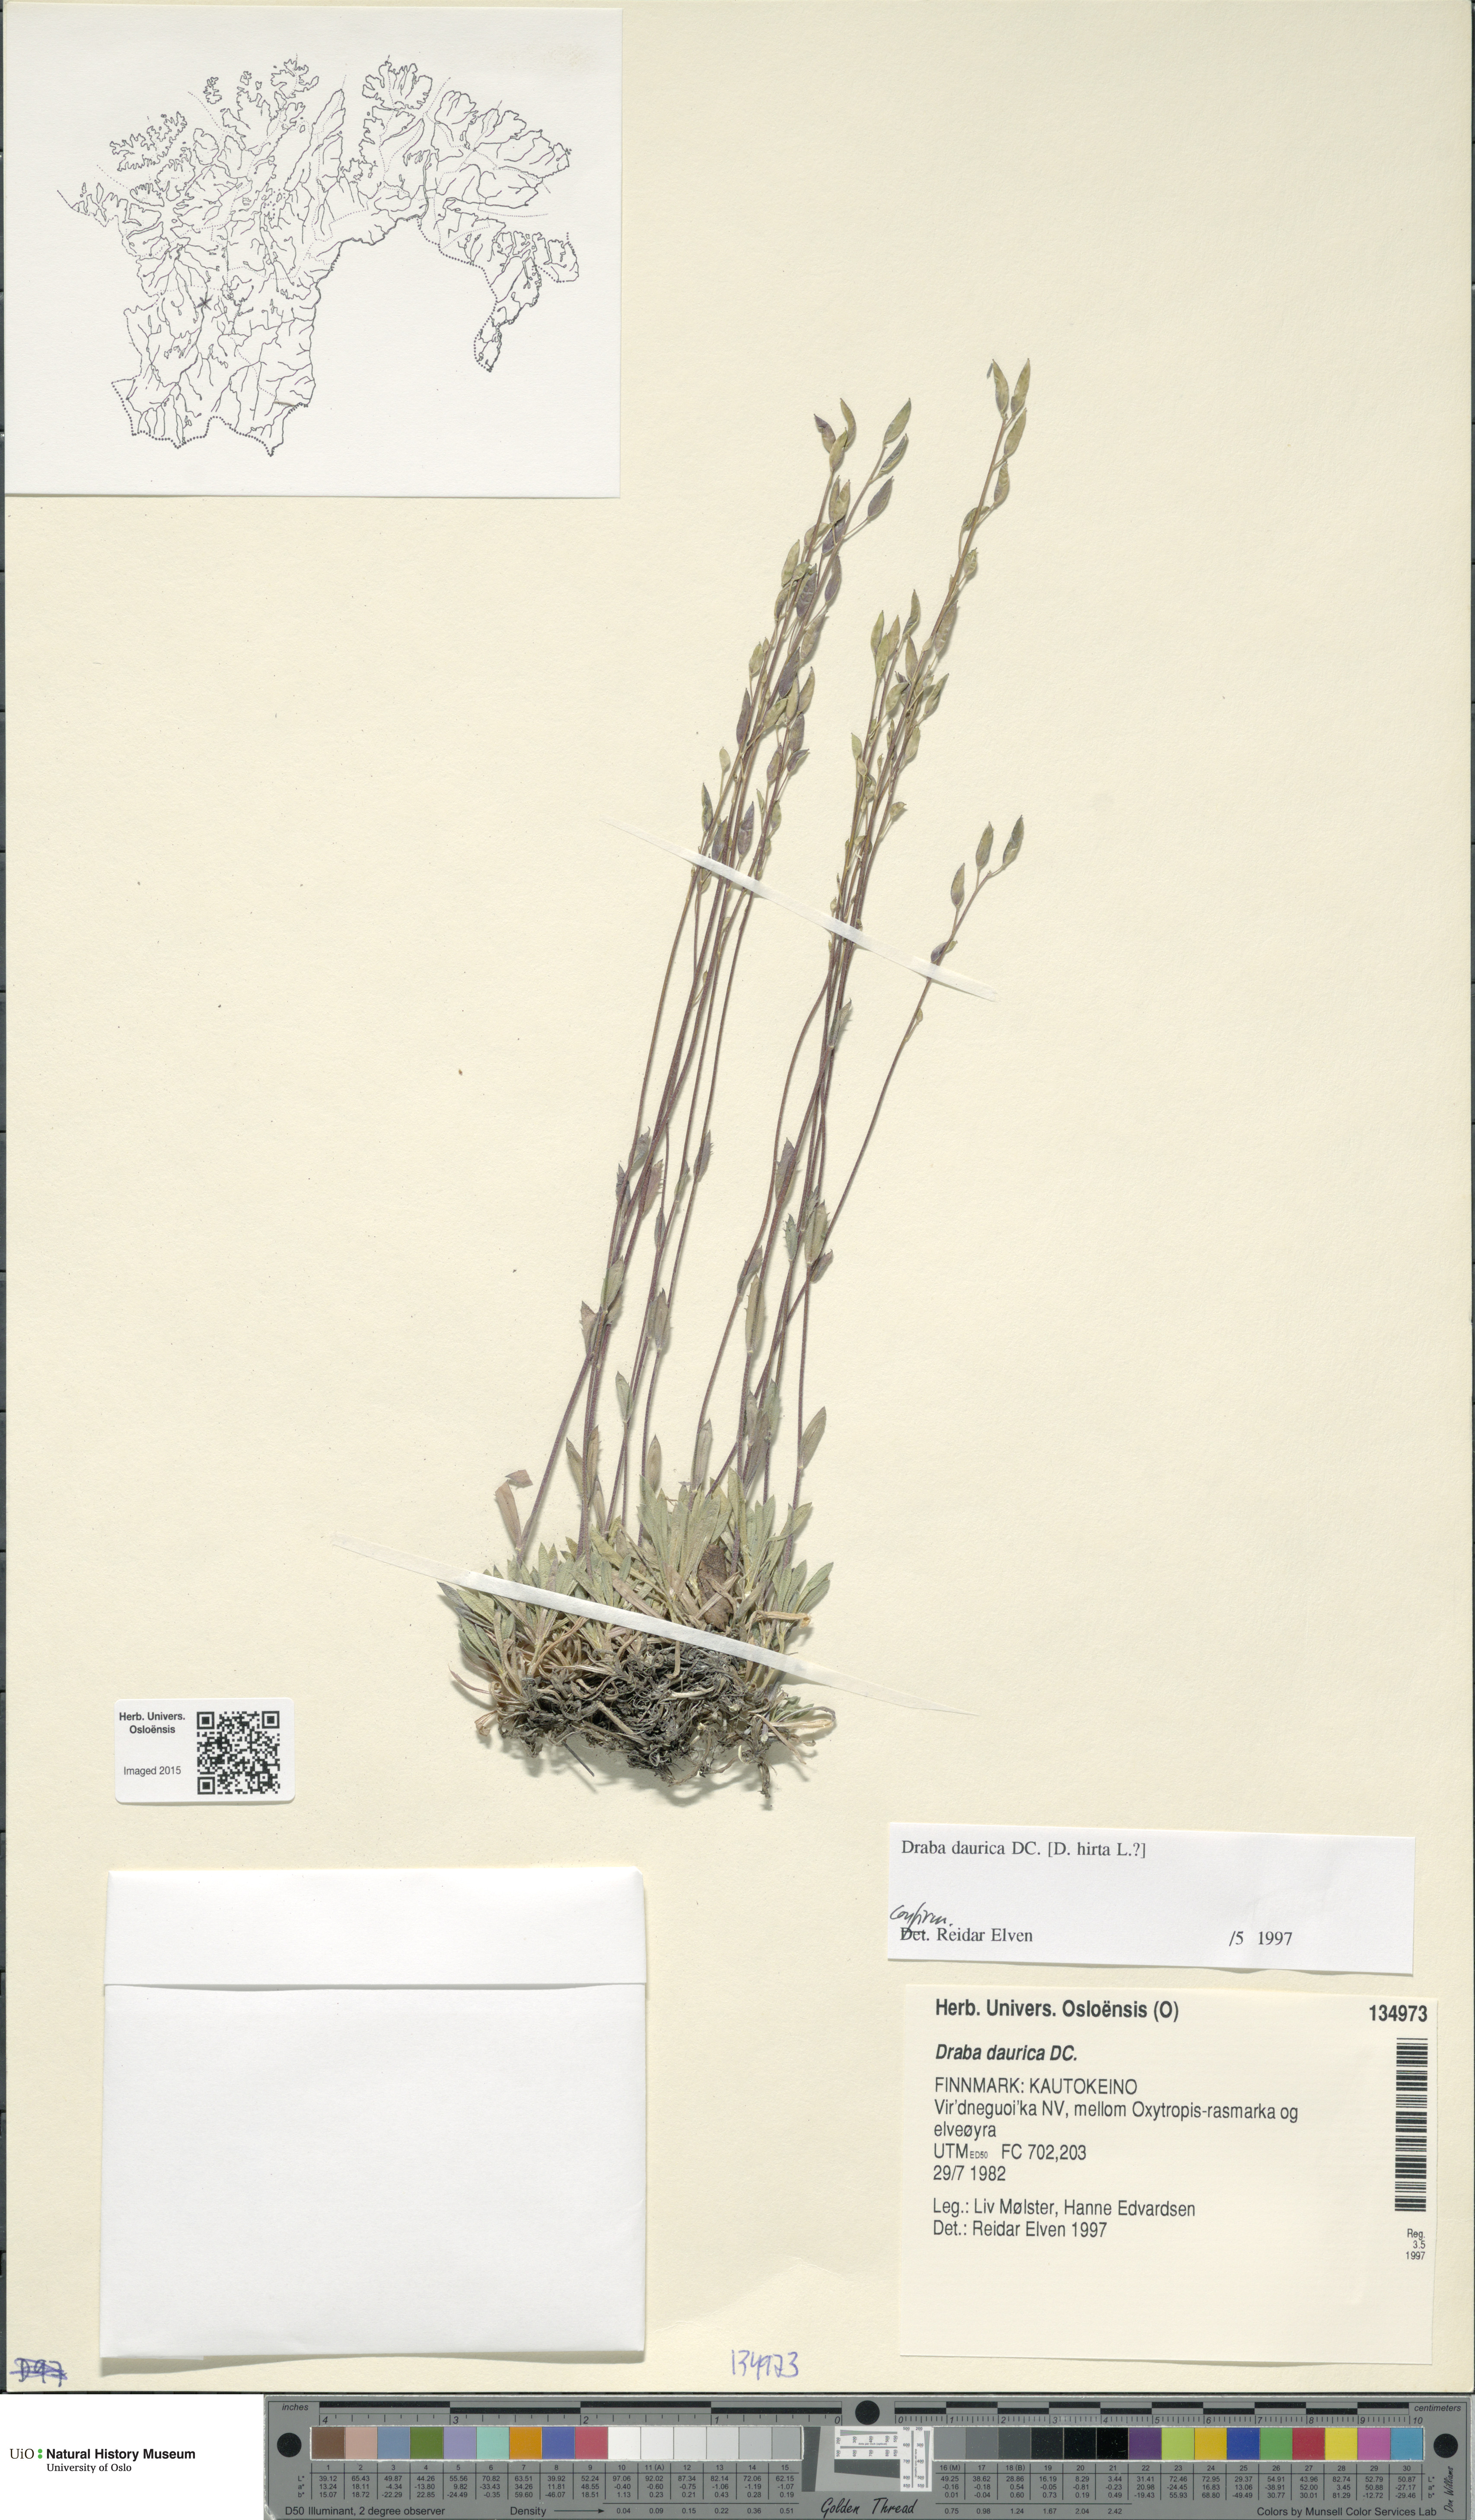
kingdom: Plantae
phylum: Tracheophyta
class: Magnoliopsida
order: Brassicales
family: Brassicaceae
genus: Draba
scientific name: Draba glabella
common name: Glaucous draba
